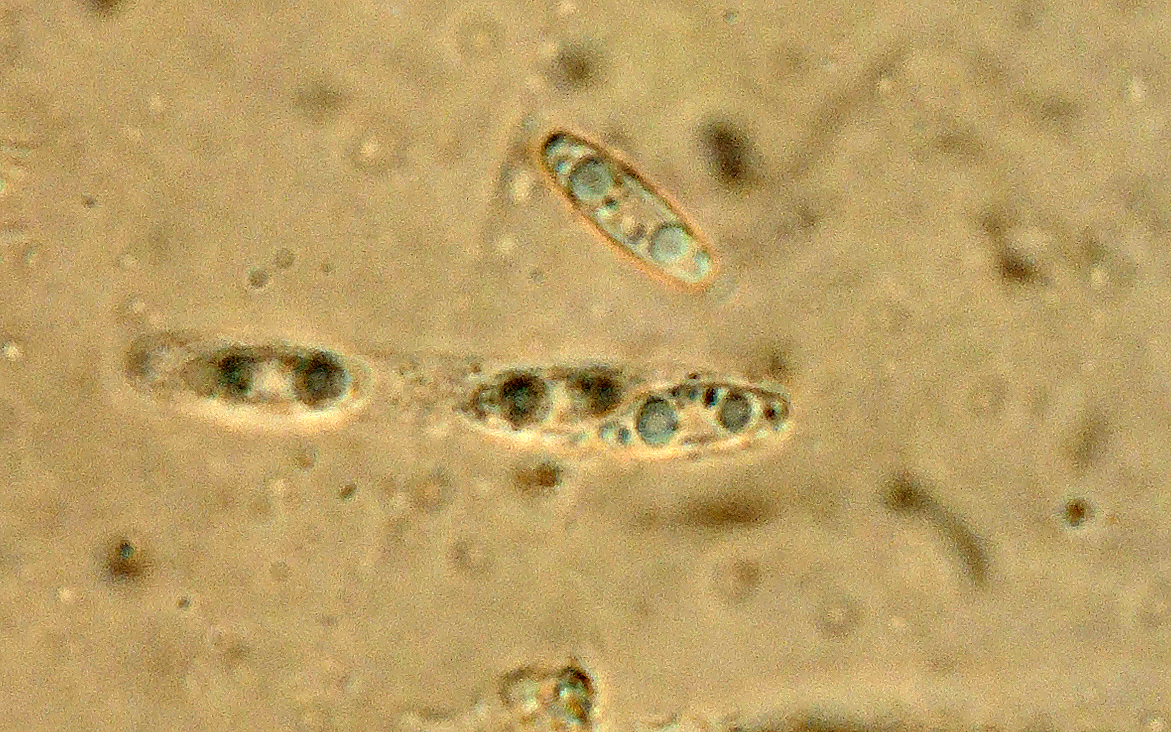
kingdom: Fungi
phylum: Ascomycota
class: Sordariomycetes
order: Phomatosporales
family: Phomatosporaceae
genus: Phomatospora
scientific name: Phomatospora berkeleyi
